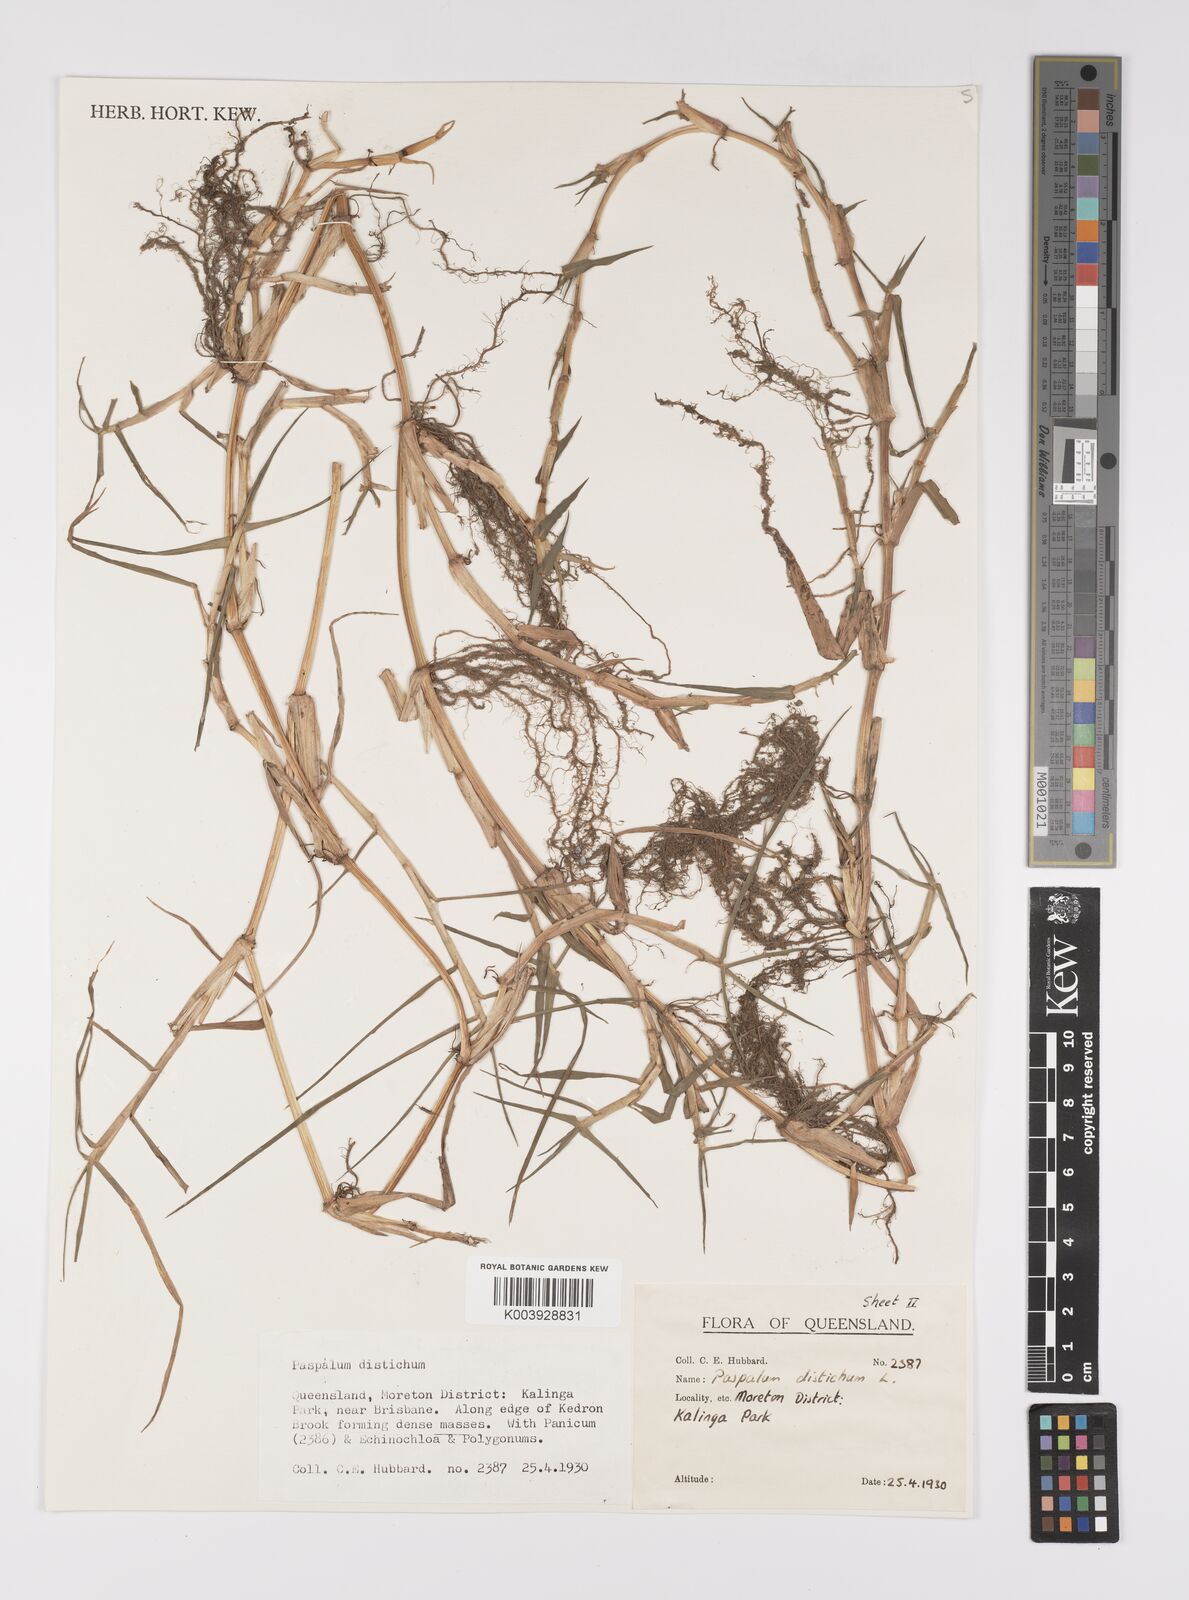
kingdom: Plantae
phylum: Tracheophyta
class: Liliopsida
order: Poales
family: Poaceae
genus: Paspalum
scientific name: Paspalum distichum
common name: Knotgrass
